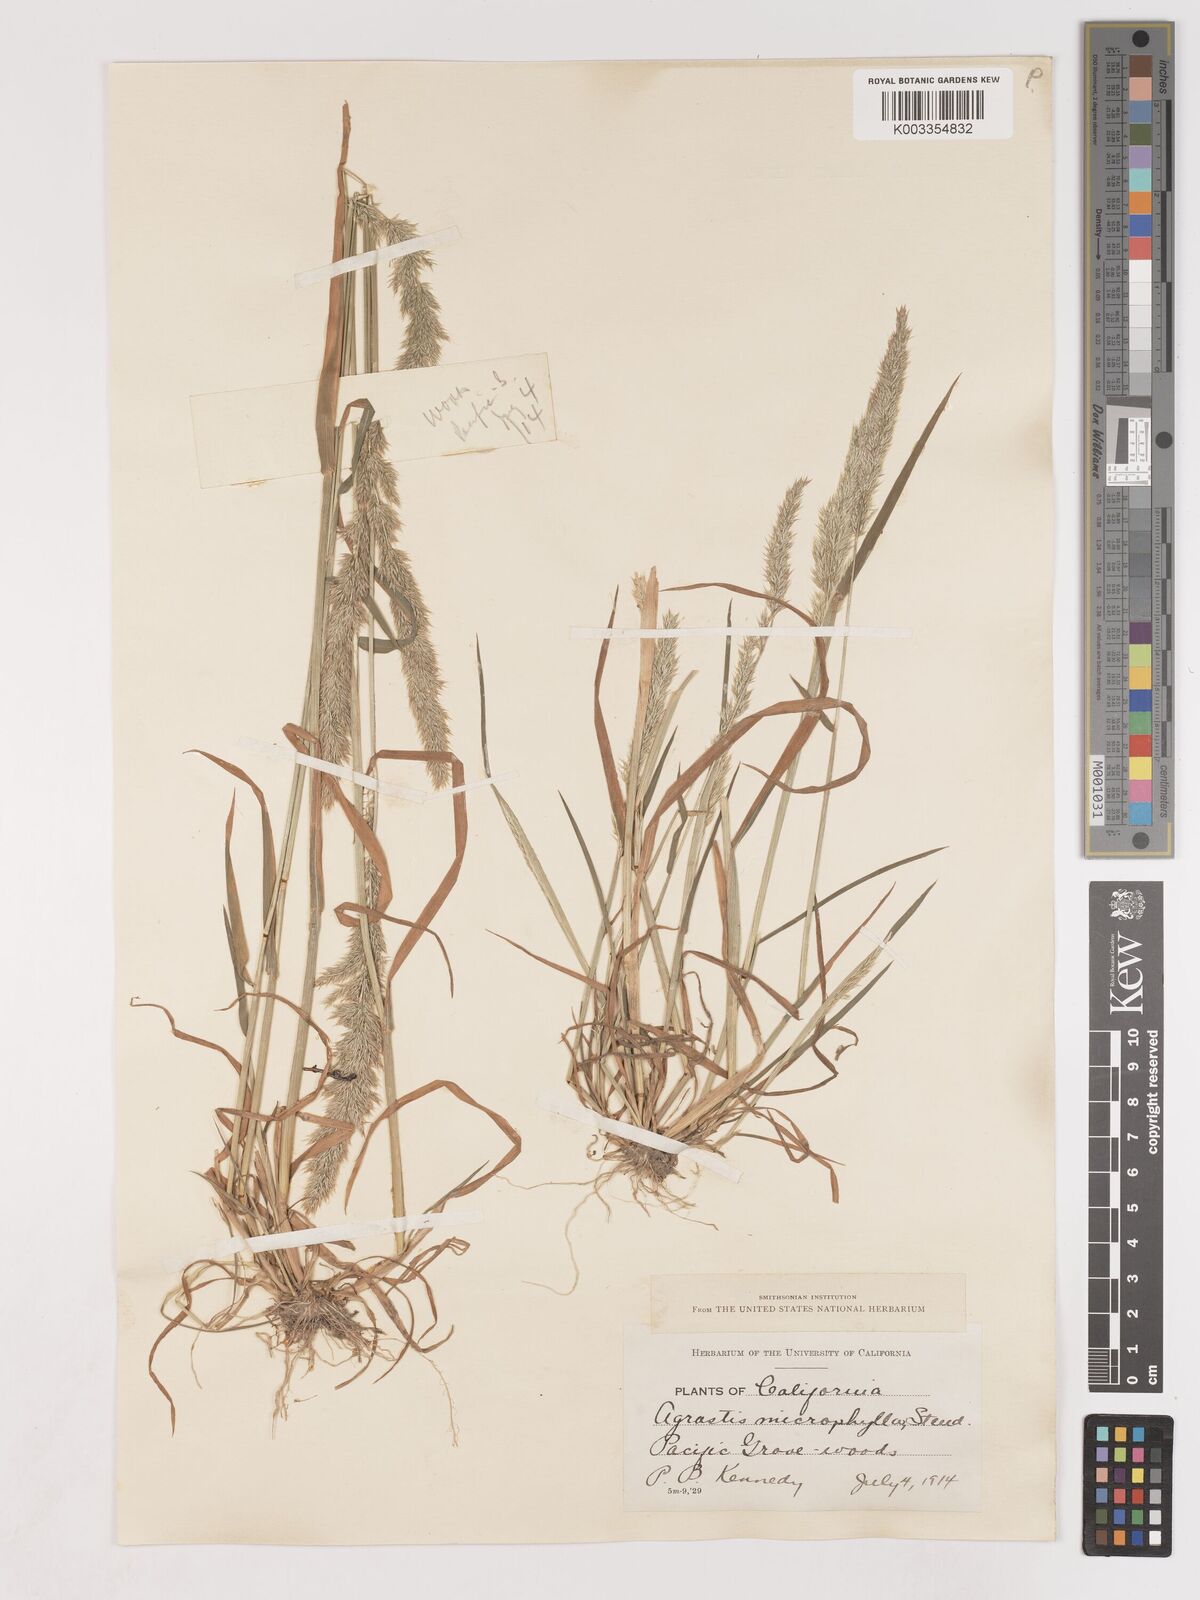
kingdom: Plantae
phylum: Tracheophyta
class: Liliopsida
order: Poales
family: Poaceae
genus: Calamagrostis
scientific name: Calamagrostis
